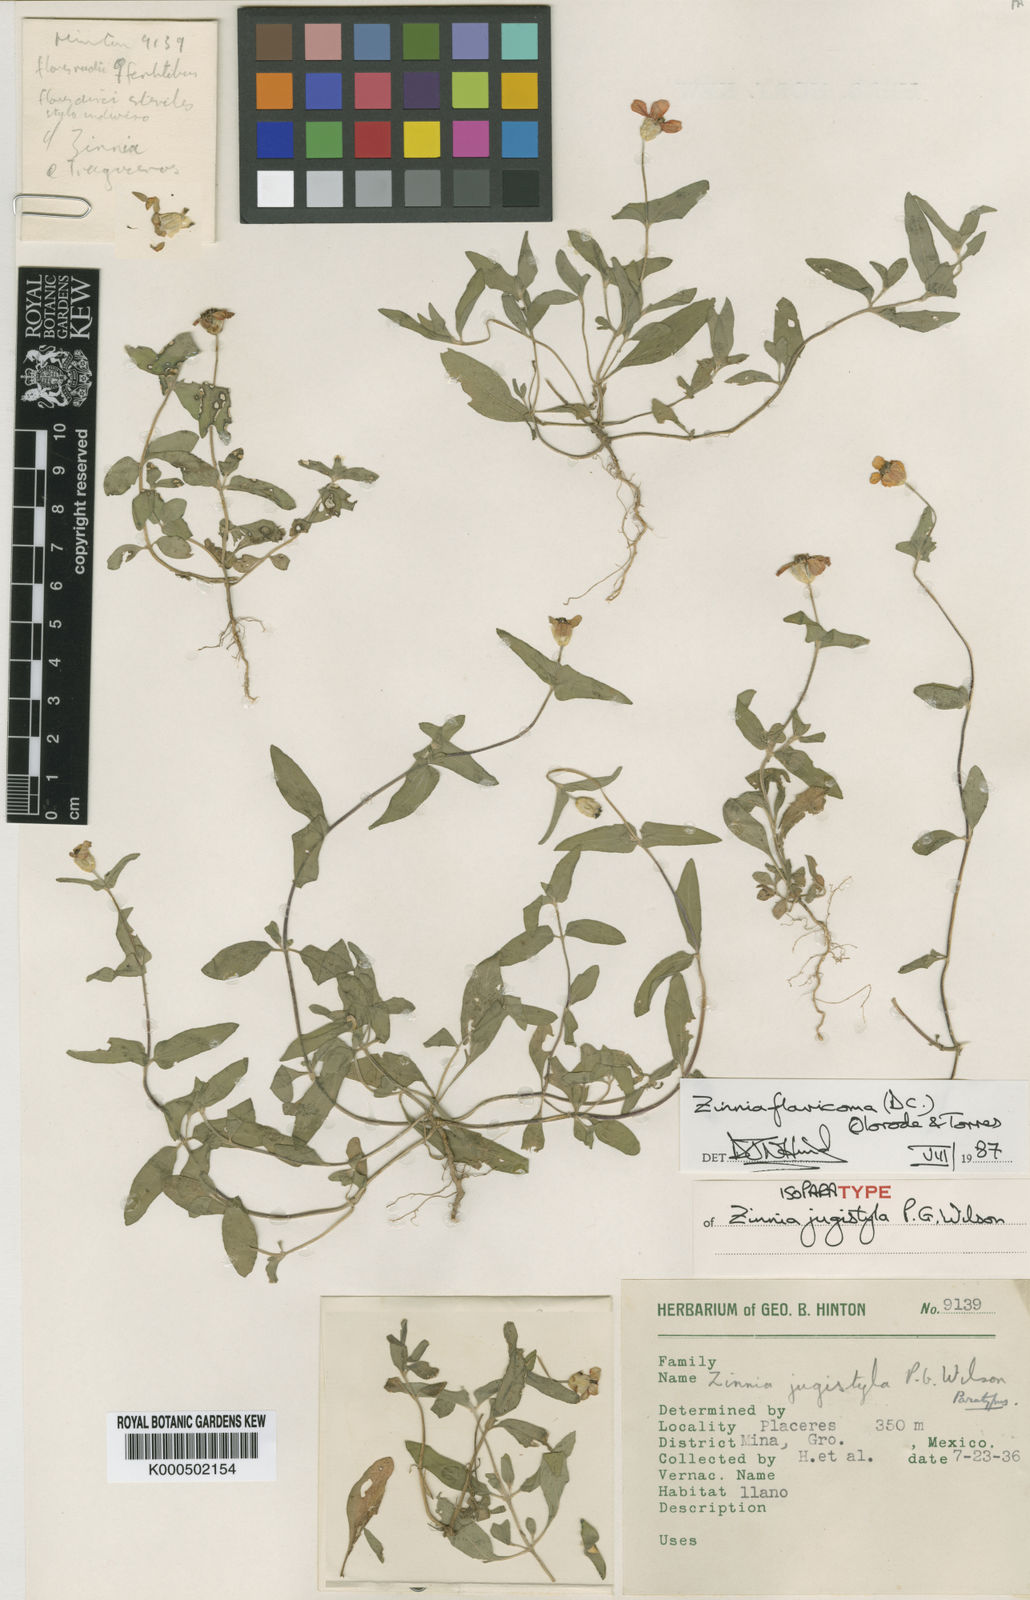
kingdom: Plantae
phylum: Tracheophyta
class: Magnoliopsida
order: Asterales
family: Asteraceae
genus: Zinnia
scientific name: Zinnia flavicoma
